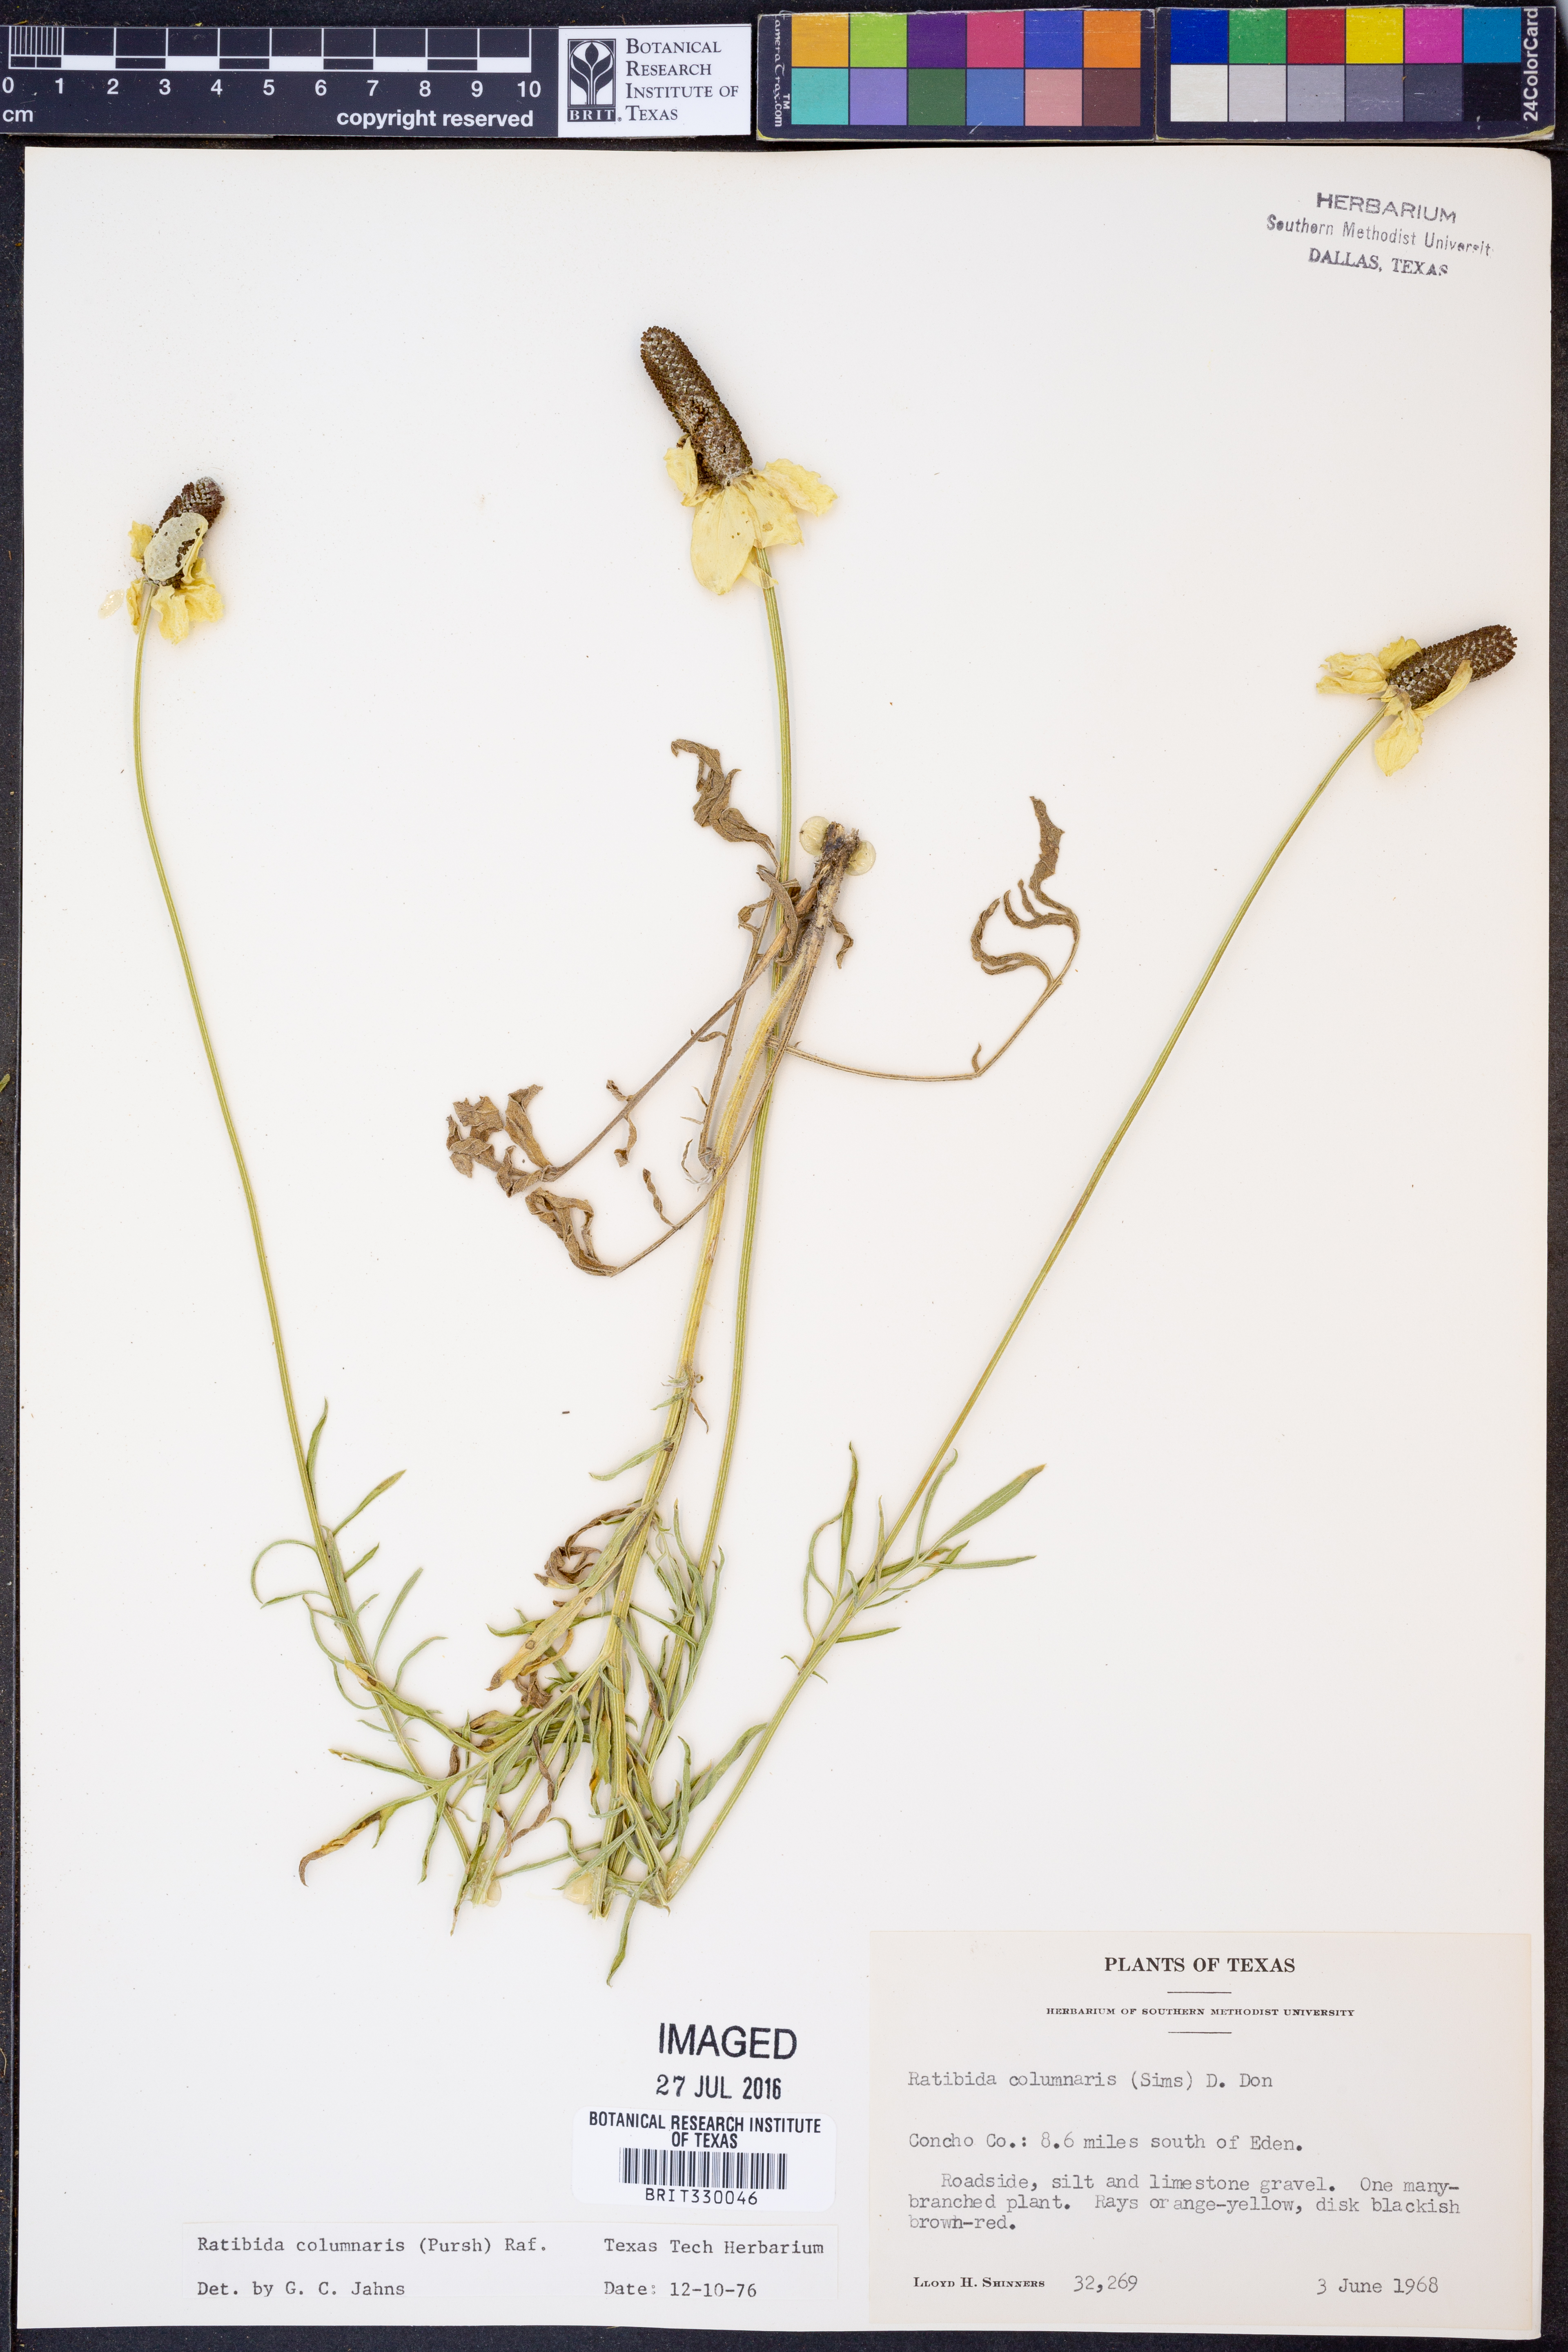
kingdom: Plantae
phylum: Tracheophyta
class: Magnoliopsida
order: Asterales
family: Asteraceae
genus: Ratibida
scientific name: Ratibida columnifera
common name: Prairie coneflower
